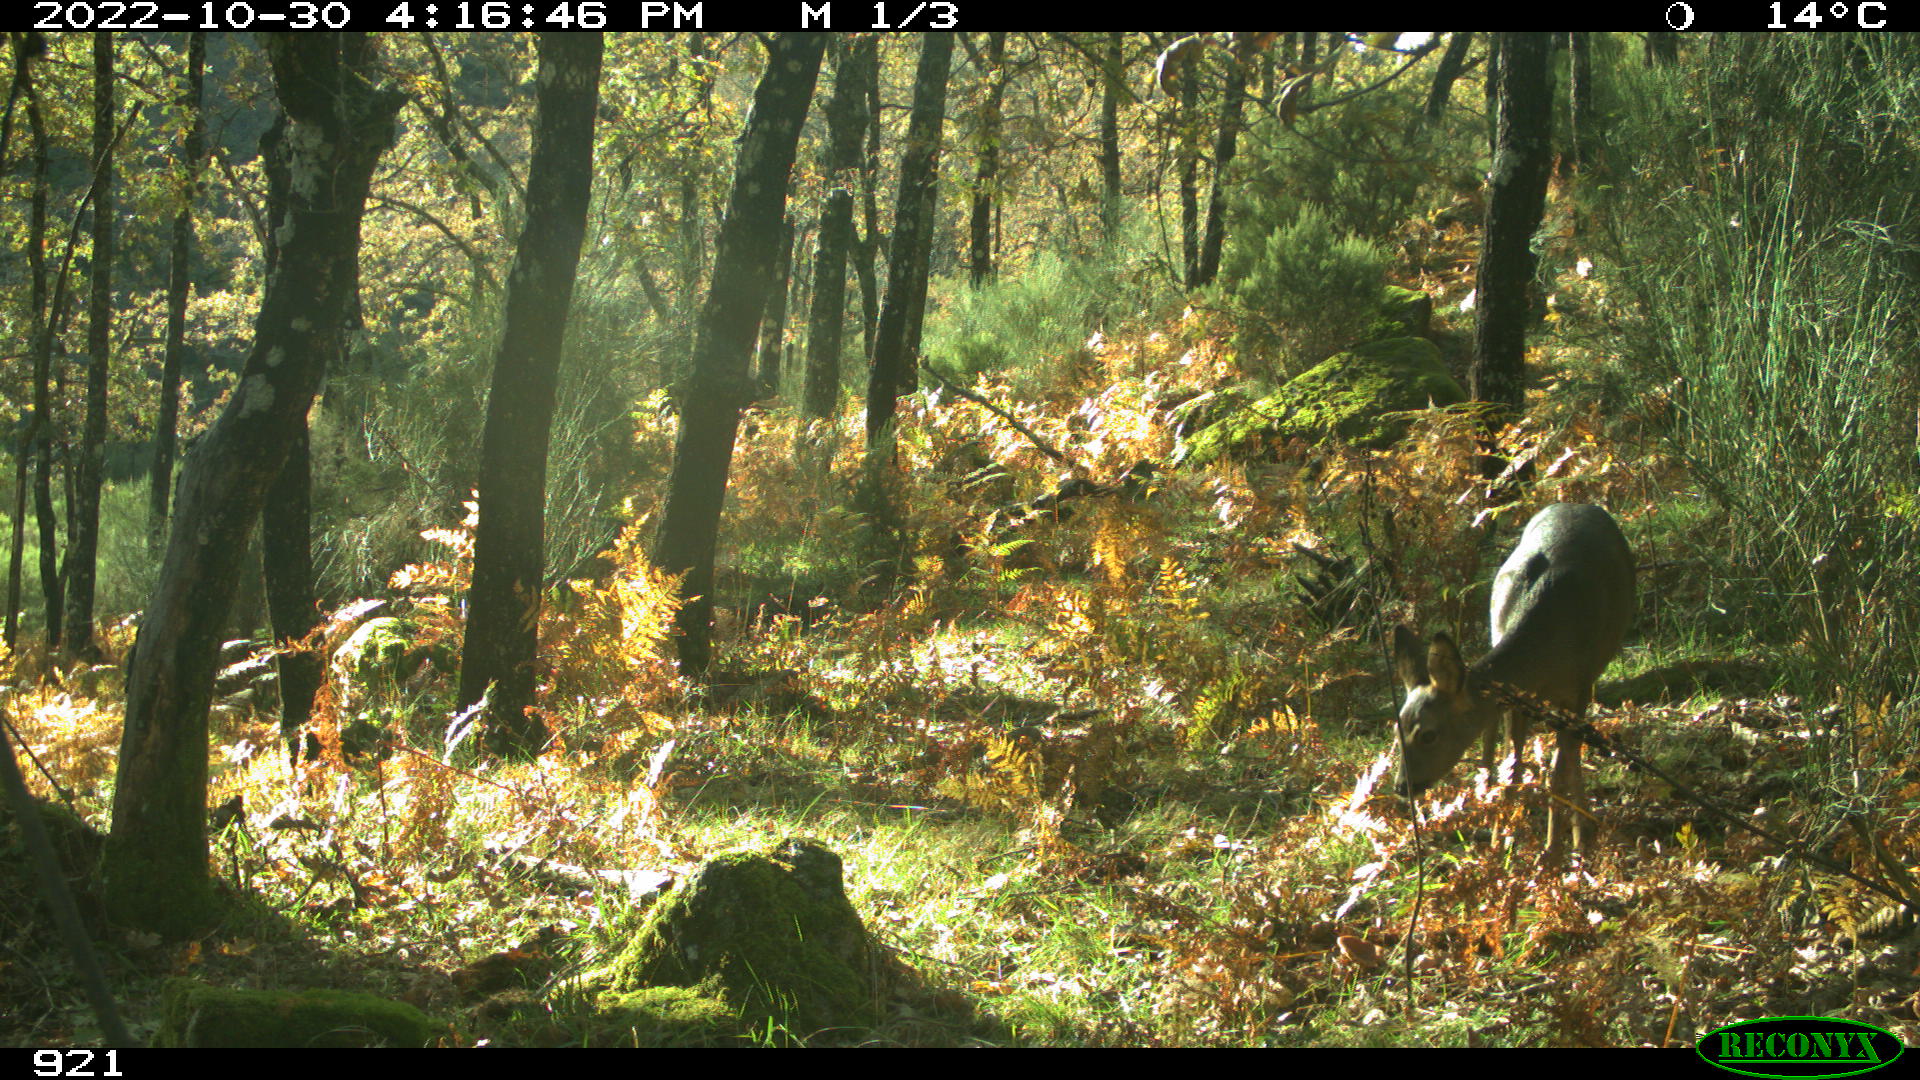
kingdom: Animalia
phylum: Chordata
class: Mammalia
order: Artiodactyla
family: Cervidae
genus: Capreolus
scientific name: Capreolus capreolus
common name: Western roe deer
